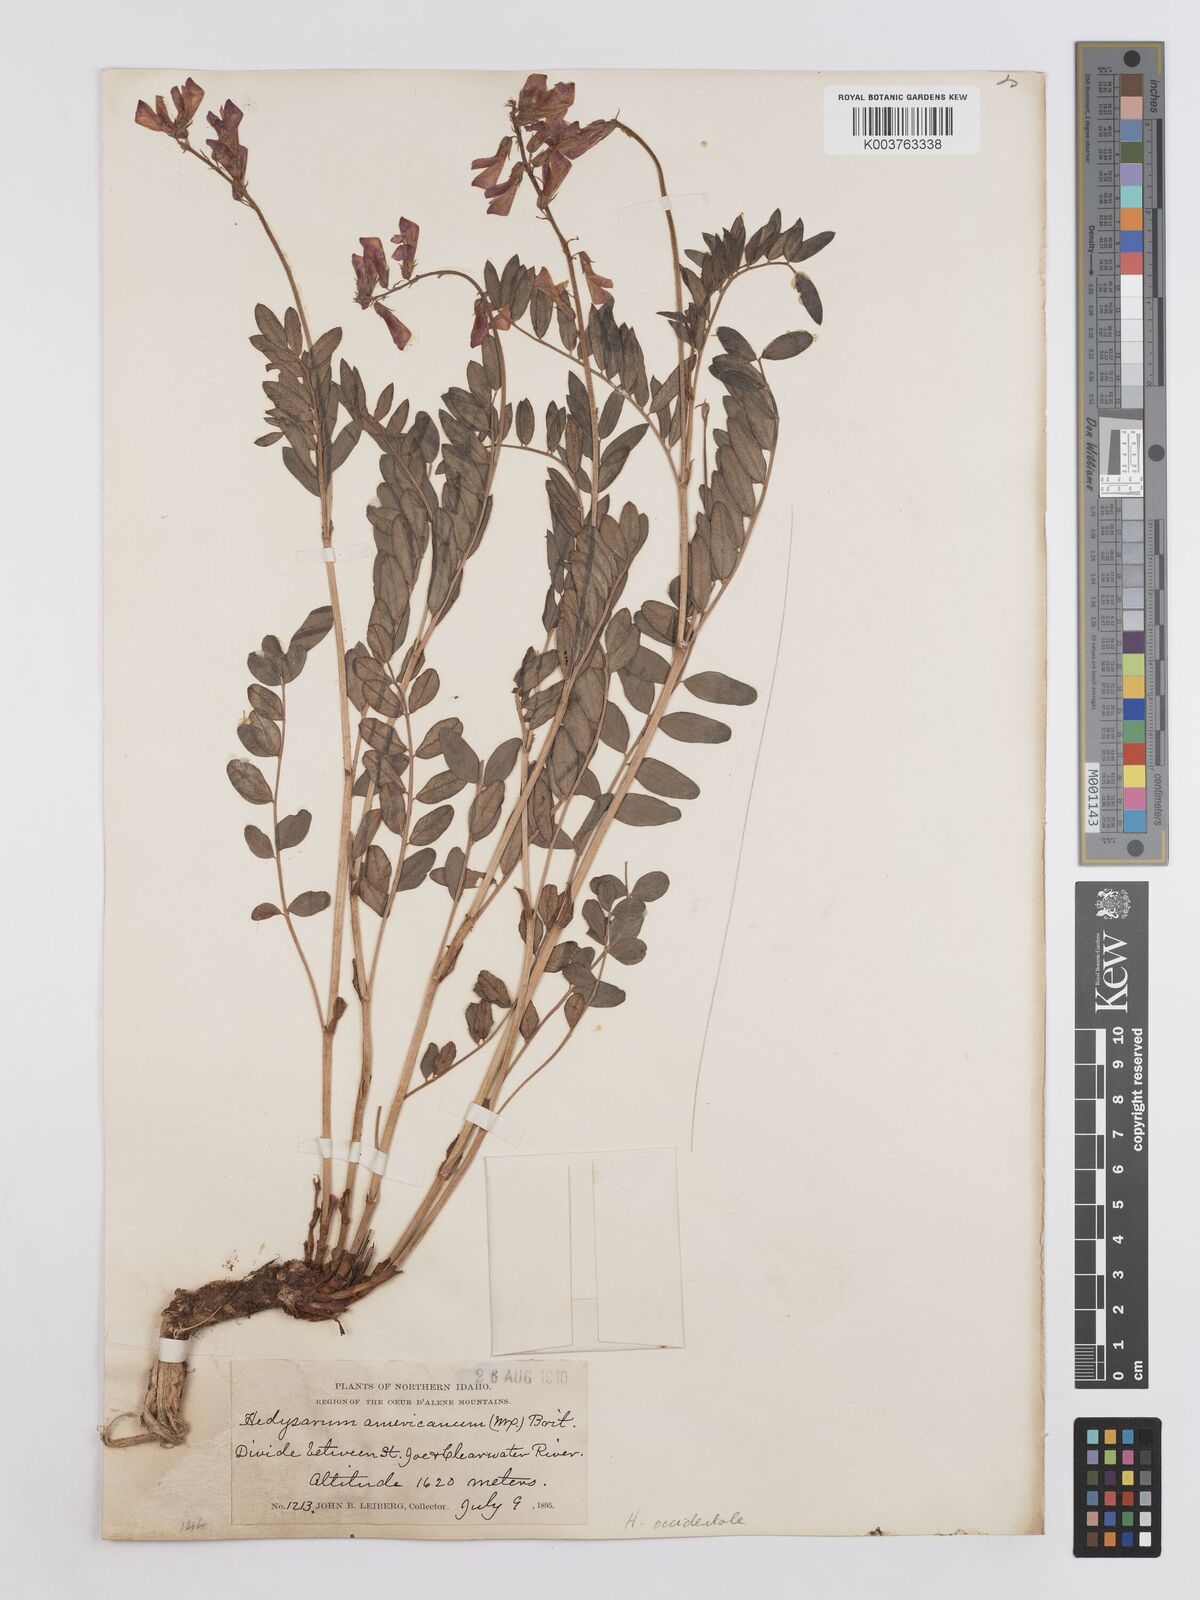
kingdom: Plantae
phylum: Tracheophyta
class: Magnoliopsida
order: Fabales
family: Fabaceae
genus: Hedysarum
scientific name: Hedysarum occidentale
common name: Western hedysarum
